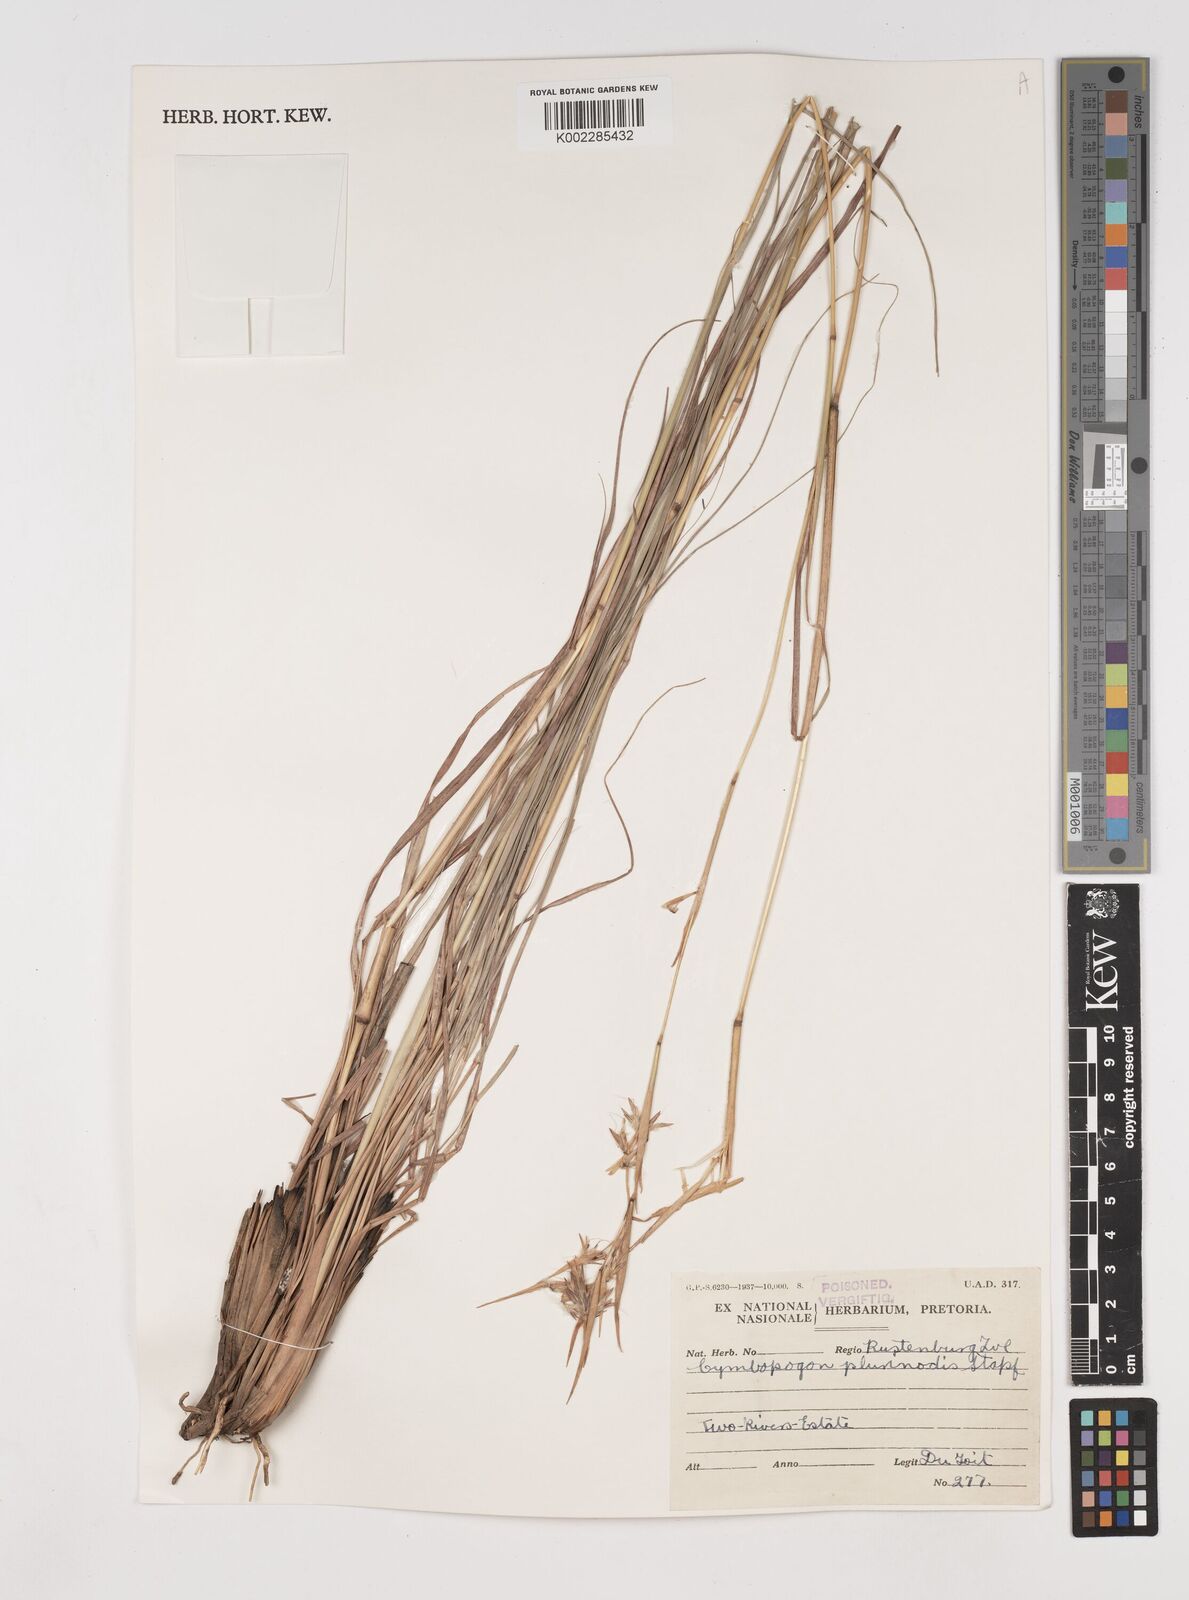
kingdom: Plantae
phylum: Tracheophyta
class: Liliopsida
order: Poales
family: Poaceae
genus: Cymbopogon
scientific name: Cymbopogon
